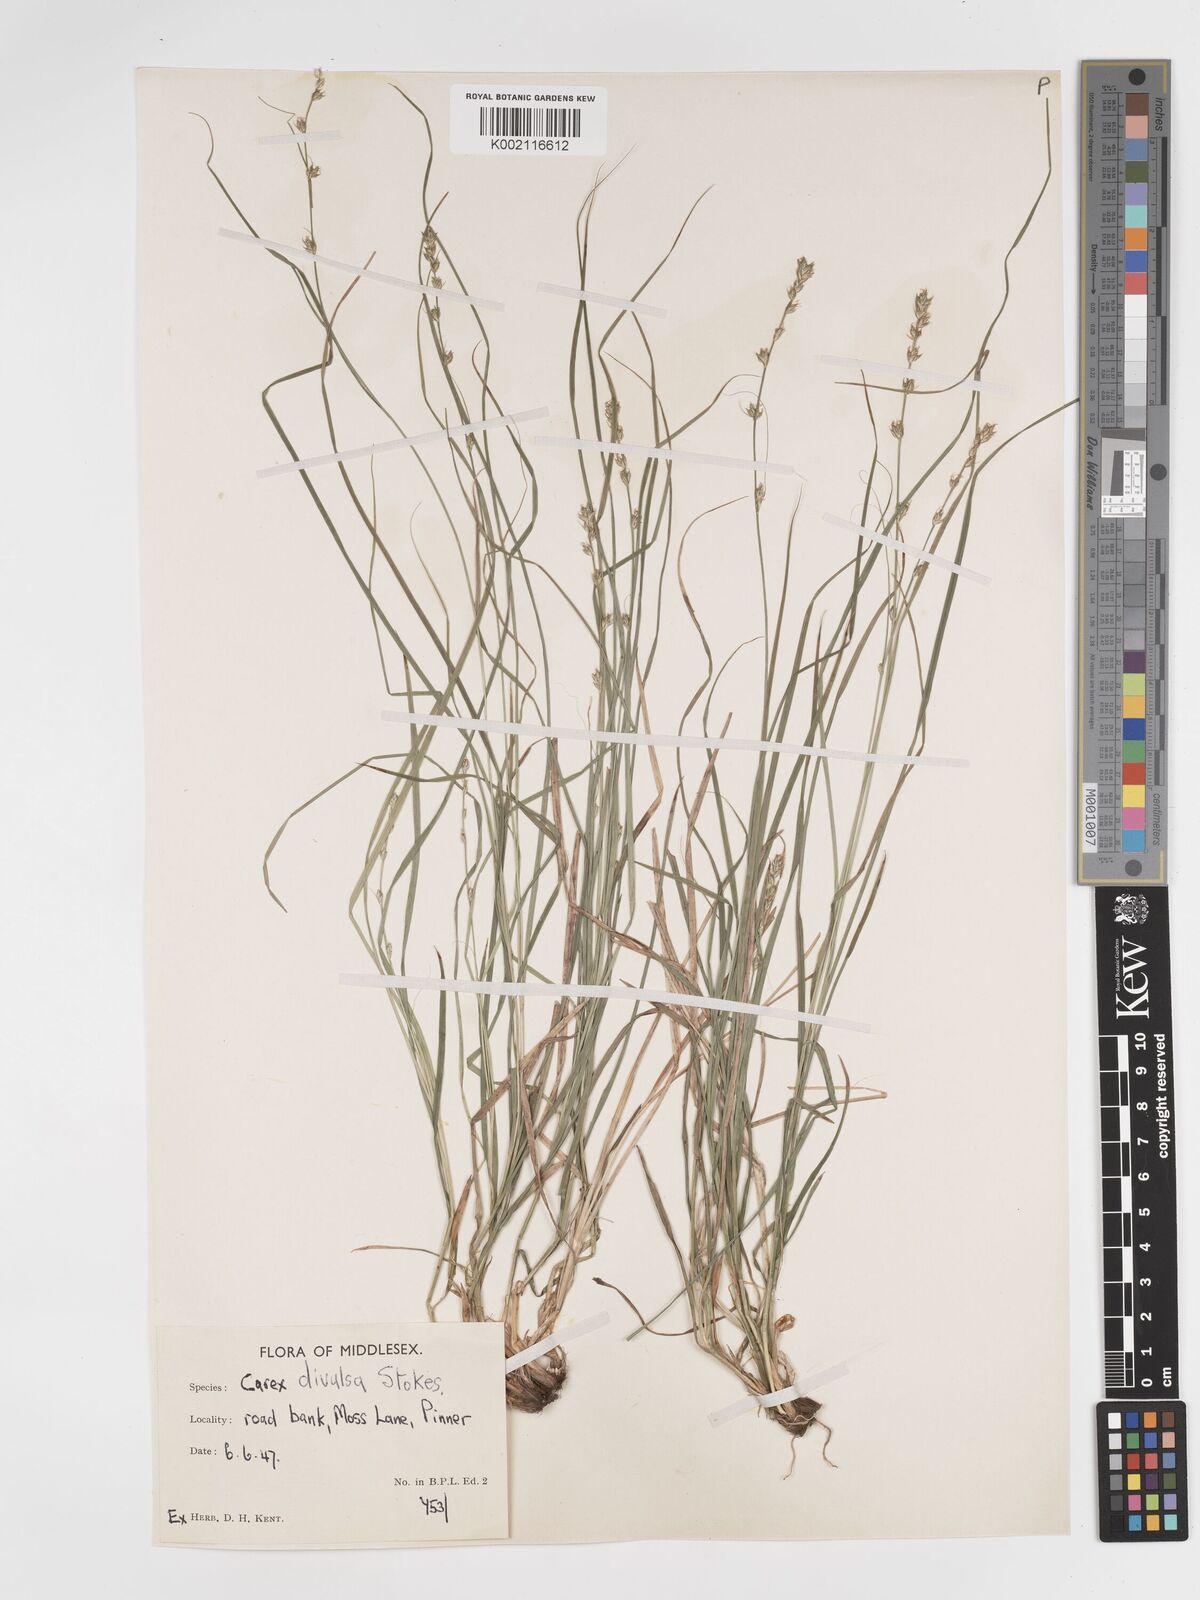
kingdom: Plantae
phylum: Tracheophyta
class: Liliopsida
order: Poales
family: Cyperaceae
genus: Carex
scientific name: Carex divulsa
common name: Grassland sedge
